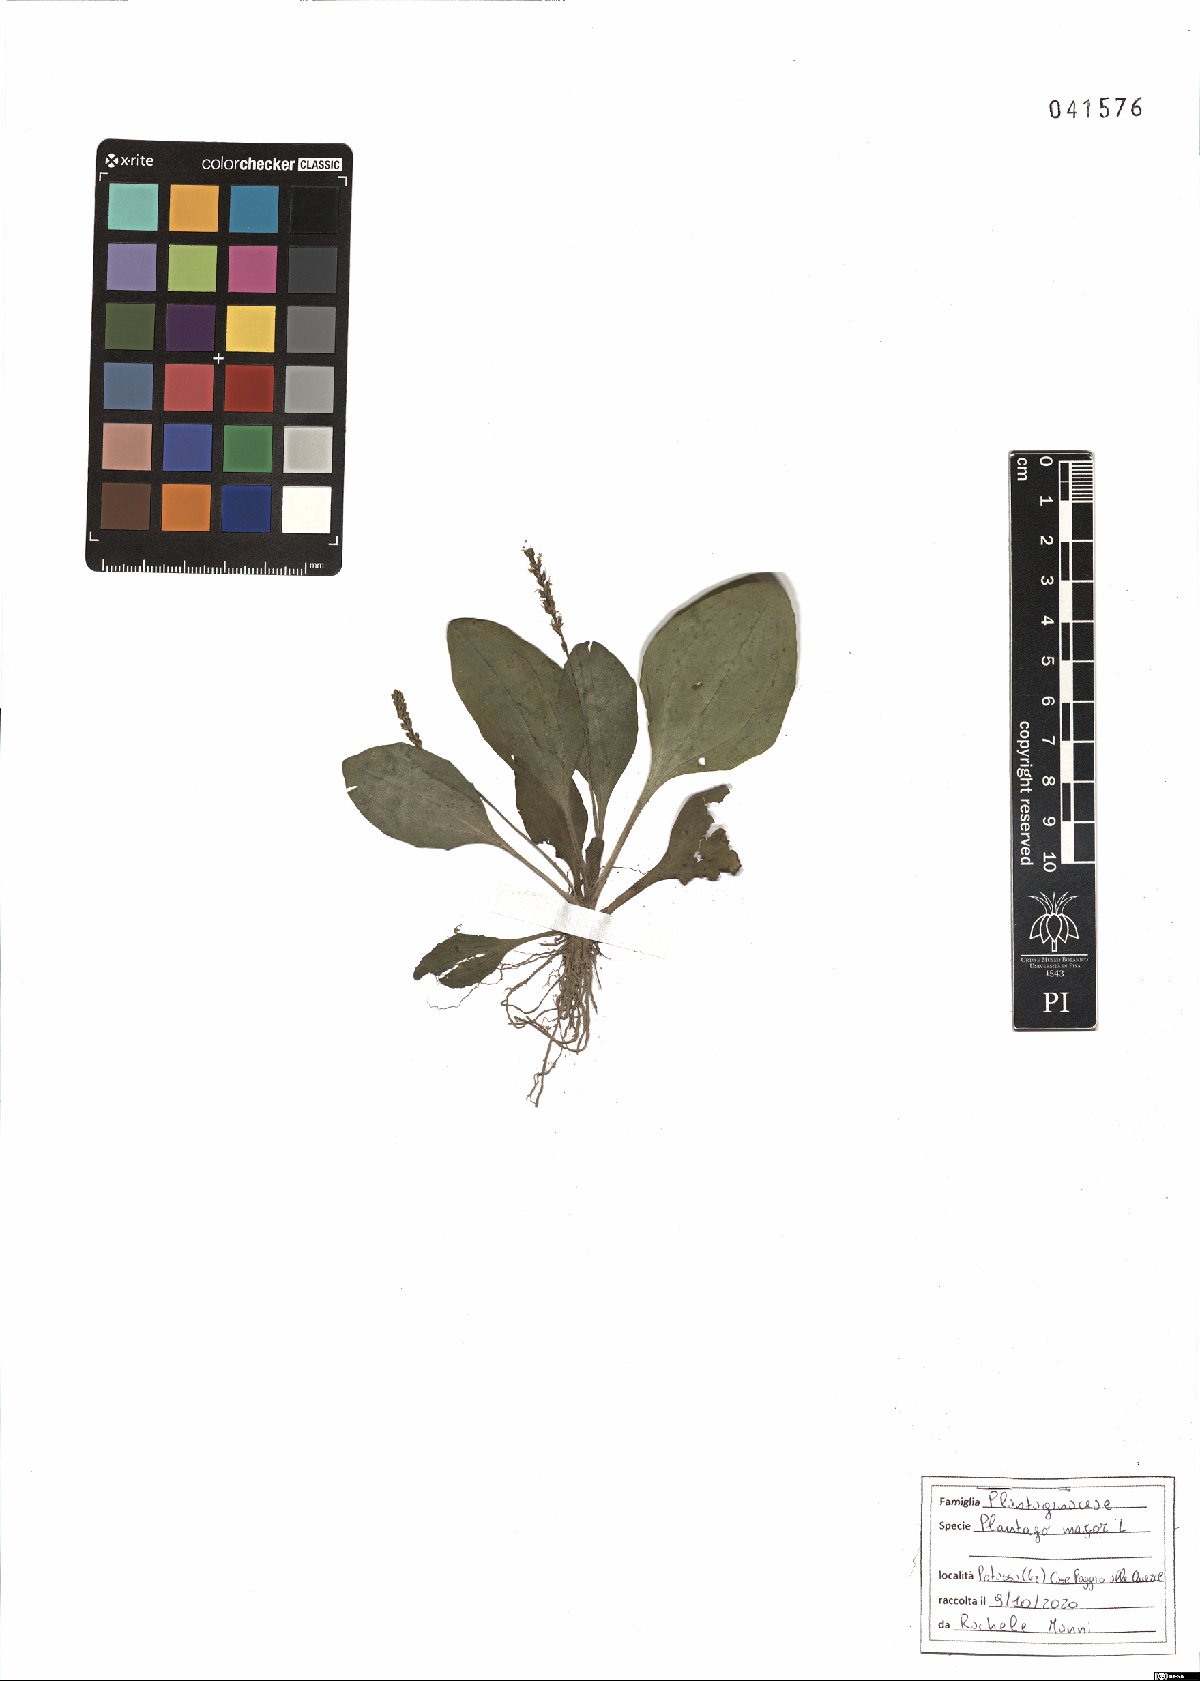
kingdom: Plantae
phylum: Tracheophyta
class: Magnoliopsida
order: Lamiales
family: Plantaginaceae
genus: Plantago
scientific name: Plantago major
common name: Common plantain
